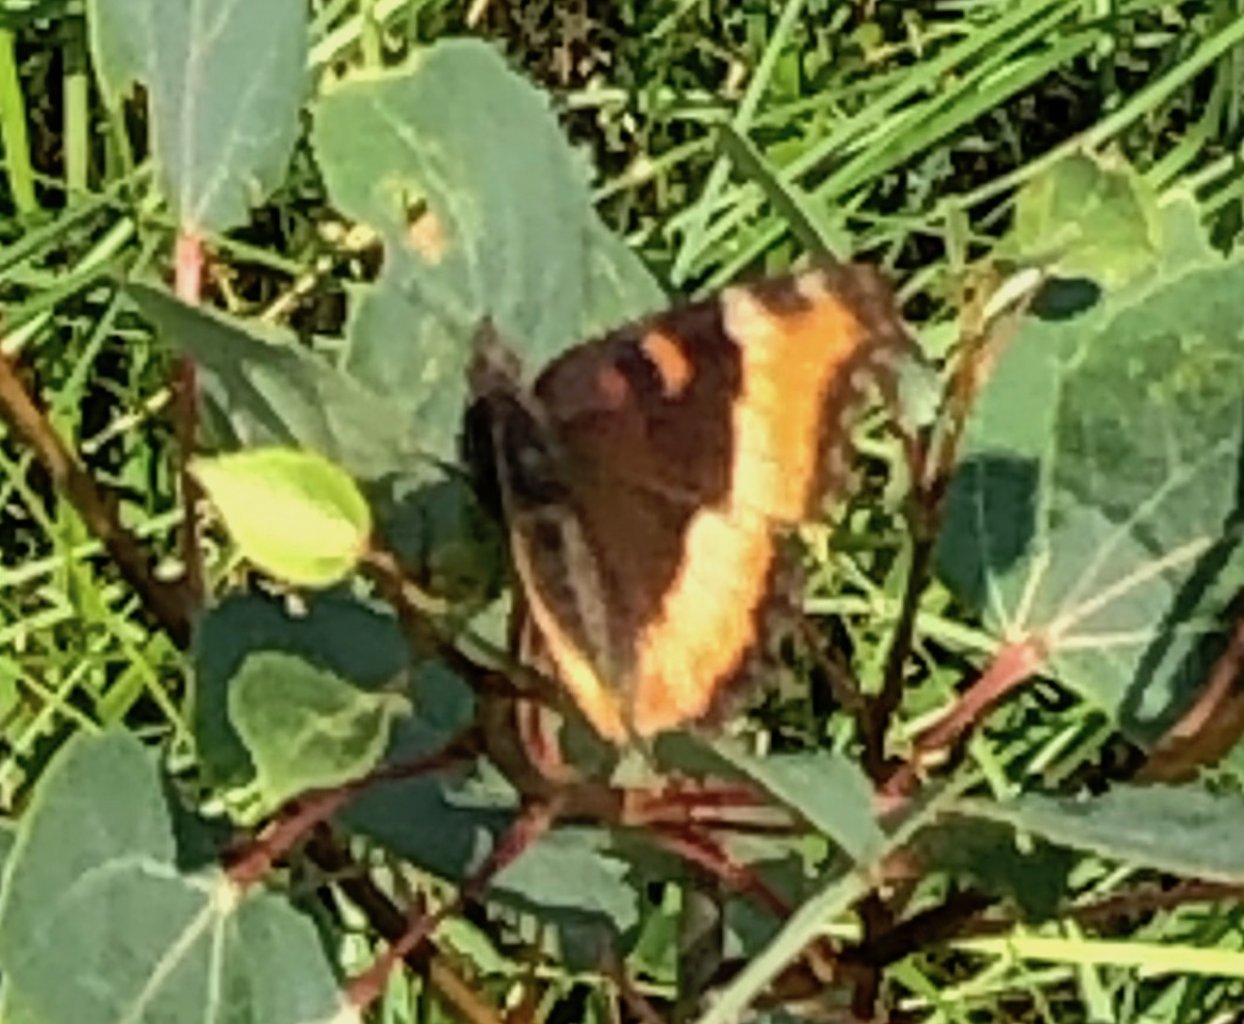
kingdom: Animalia
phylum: Arthropoda
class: Insecta
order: Lepidoptera
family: Nymphalidae
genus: Aglais
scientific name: Aglais milberti
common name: Milbert's Tortoiseshell
